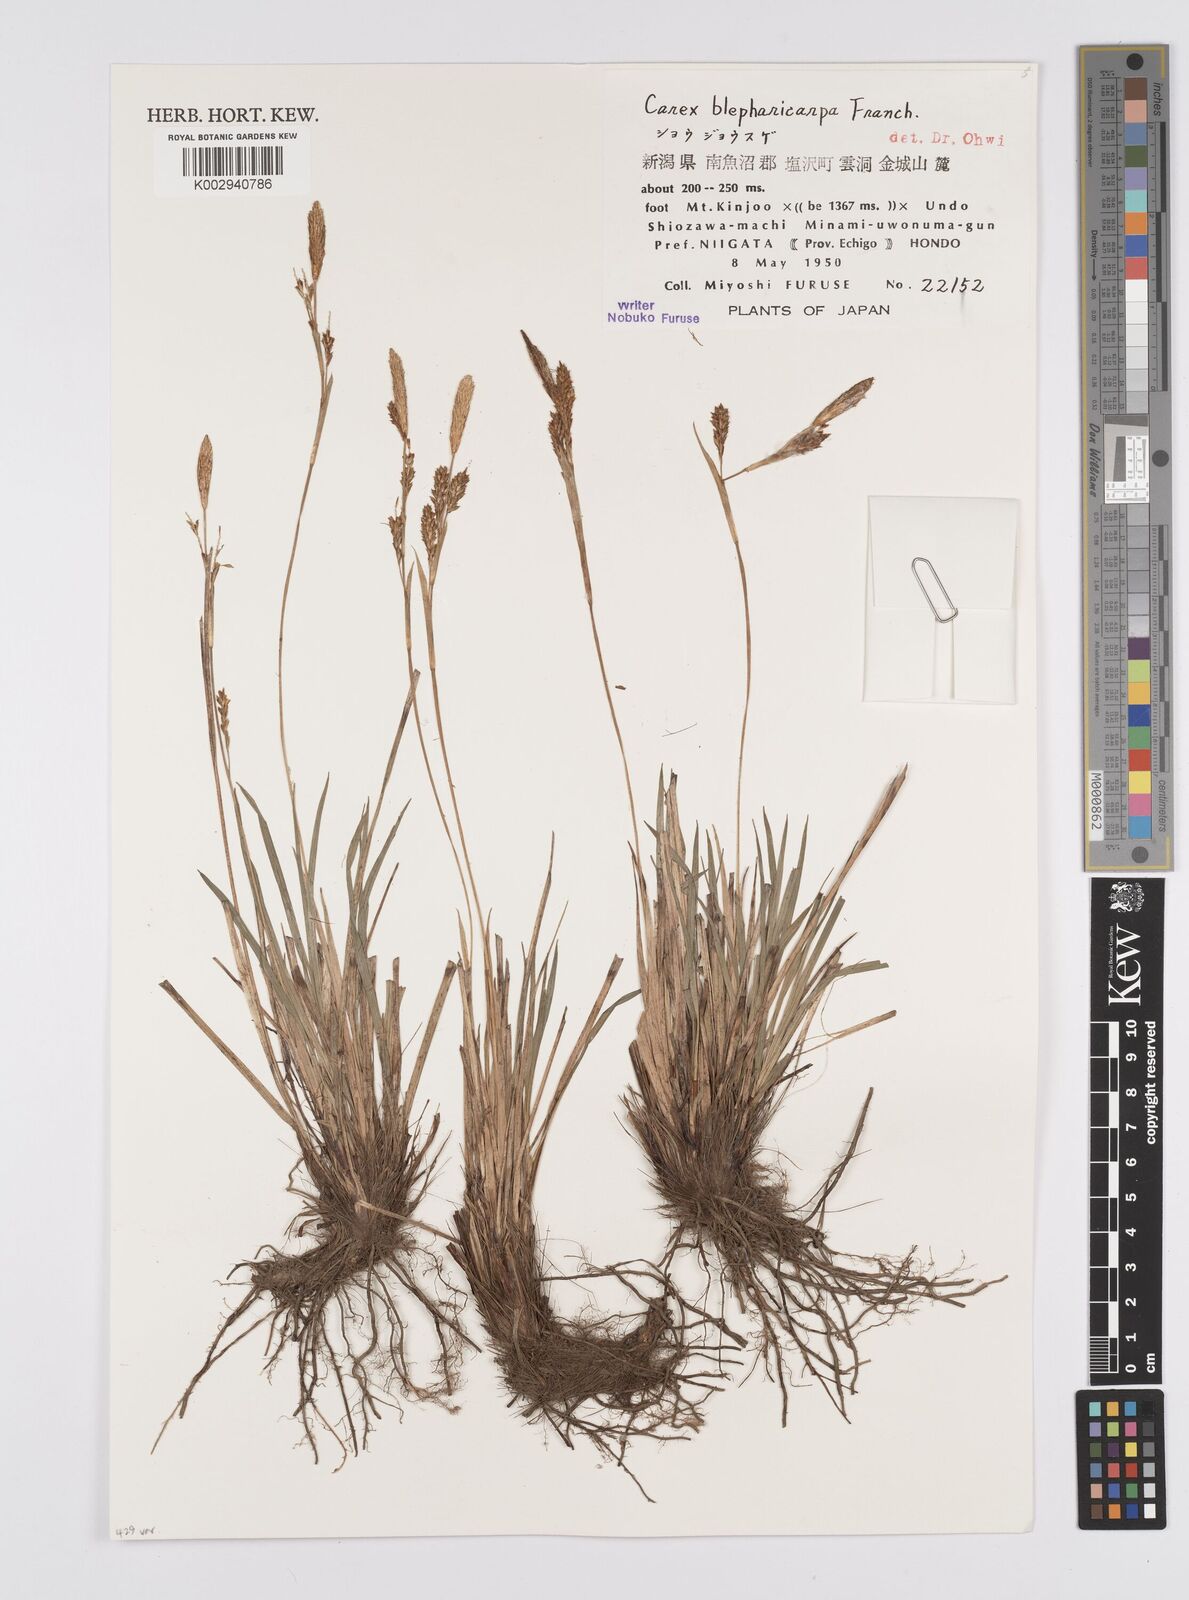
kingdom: Plantae
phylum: Tracheophyta
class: Liliopsida
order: Poales
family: Cyperaceae
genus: Carex
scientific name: Carex blepharicarpa
